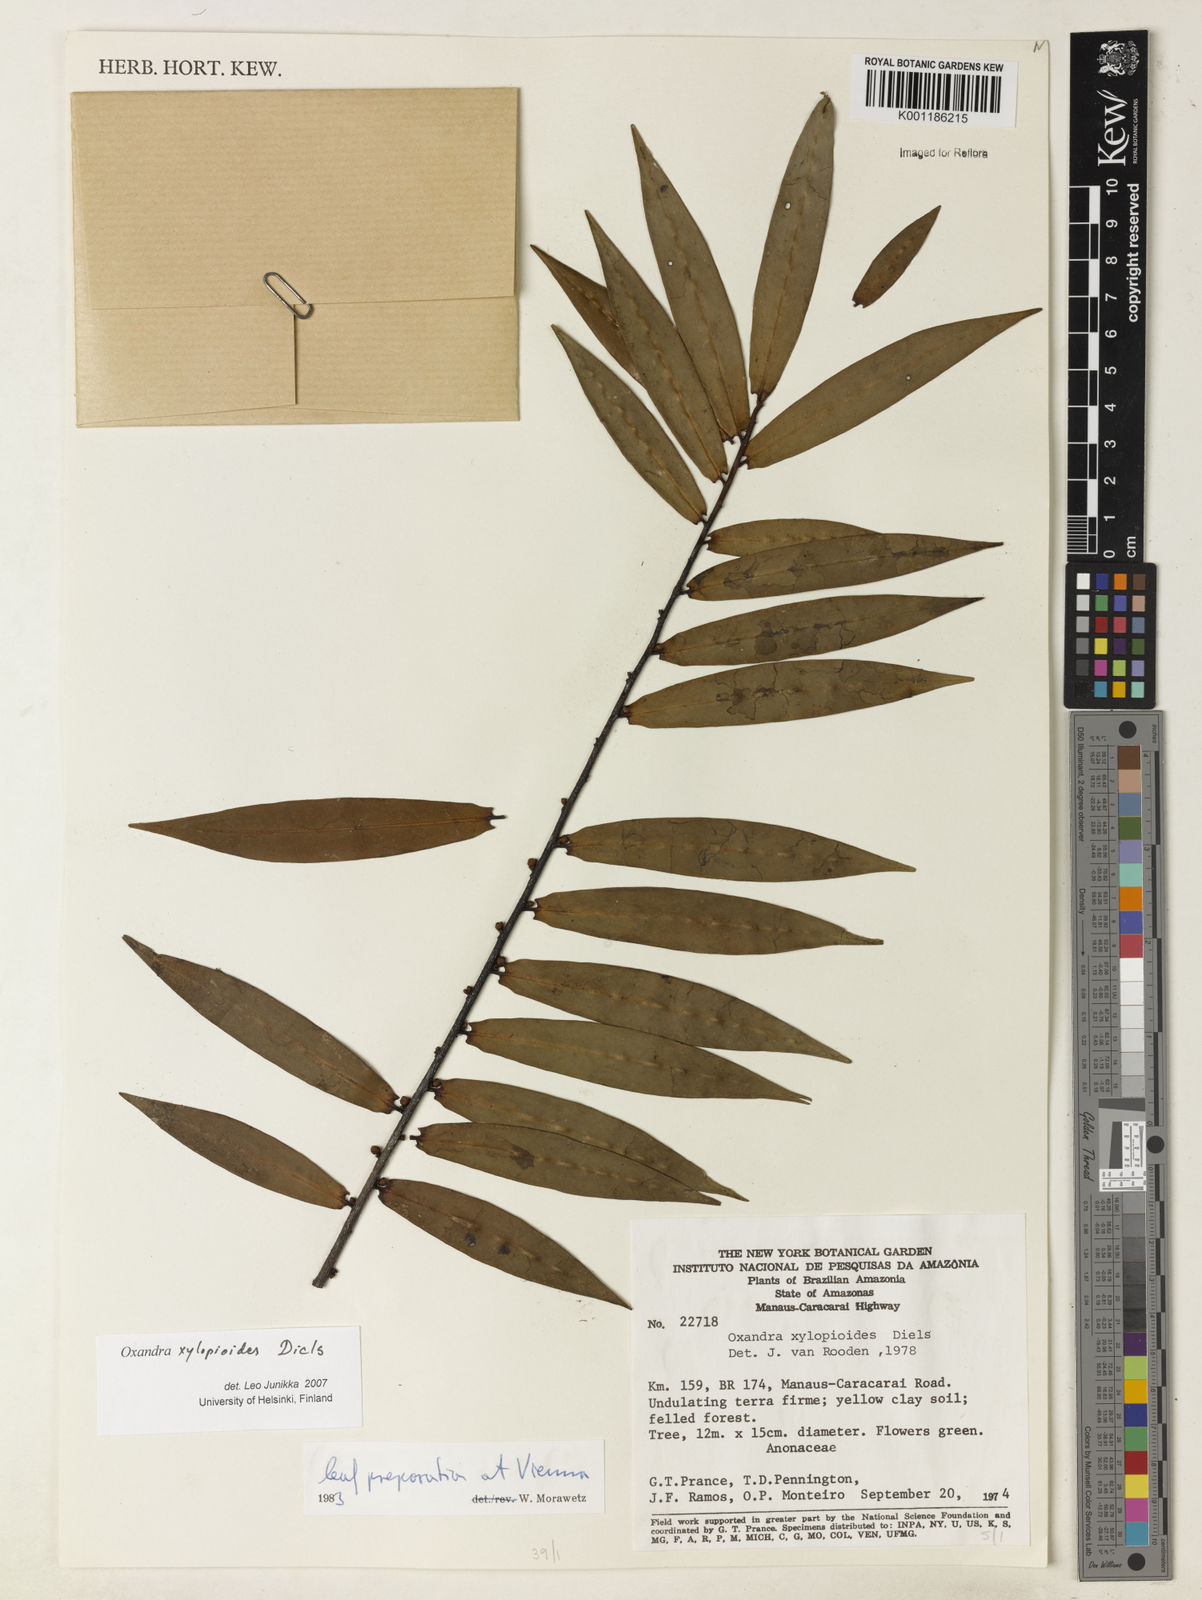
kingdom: Plantae
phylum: Tracheophyta
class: Magnoliopsida
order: Magnoliales
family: Annonaceae
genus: Oxandra
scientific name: Oxandra xylopioides
